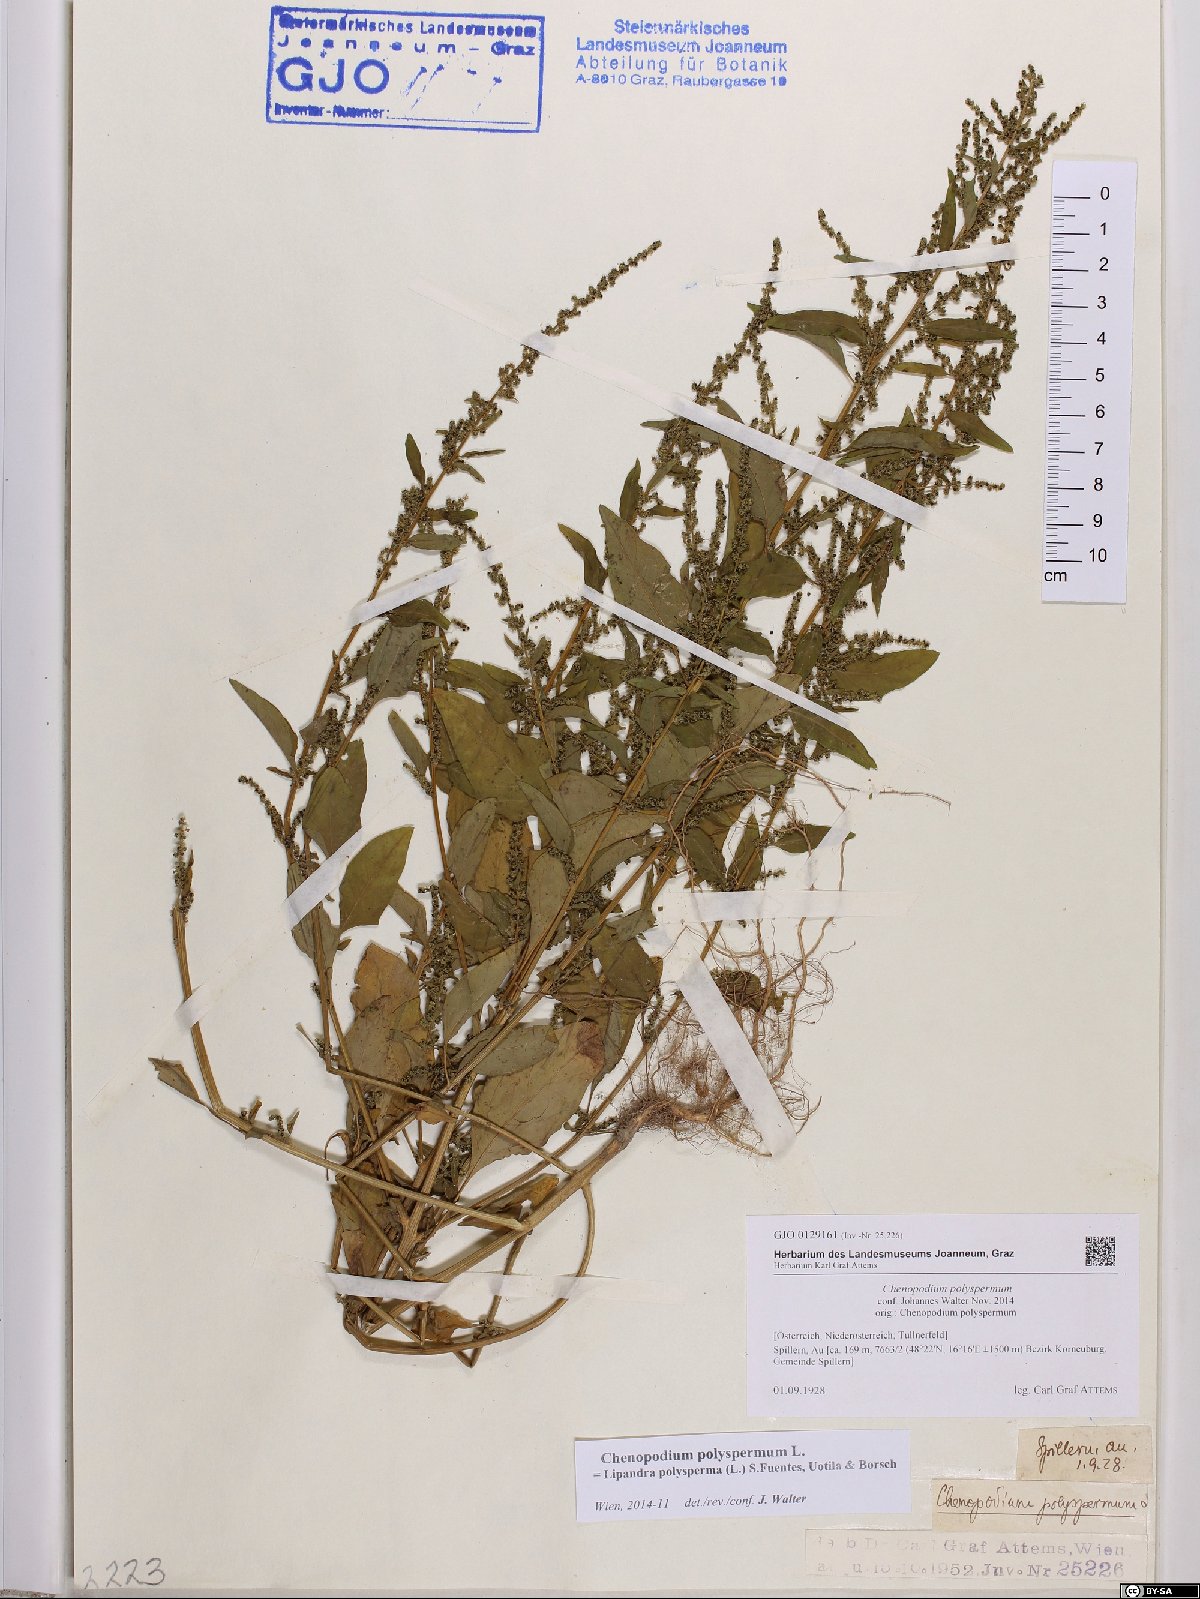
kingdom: Plantae
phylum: Tracheophyta
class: Magnoliopsida
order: Caryophyllales
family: Amaranthaceae
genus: Lipandra
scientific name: Lipandra polysperma
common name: Many-seed goosefoot
